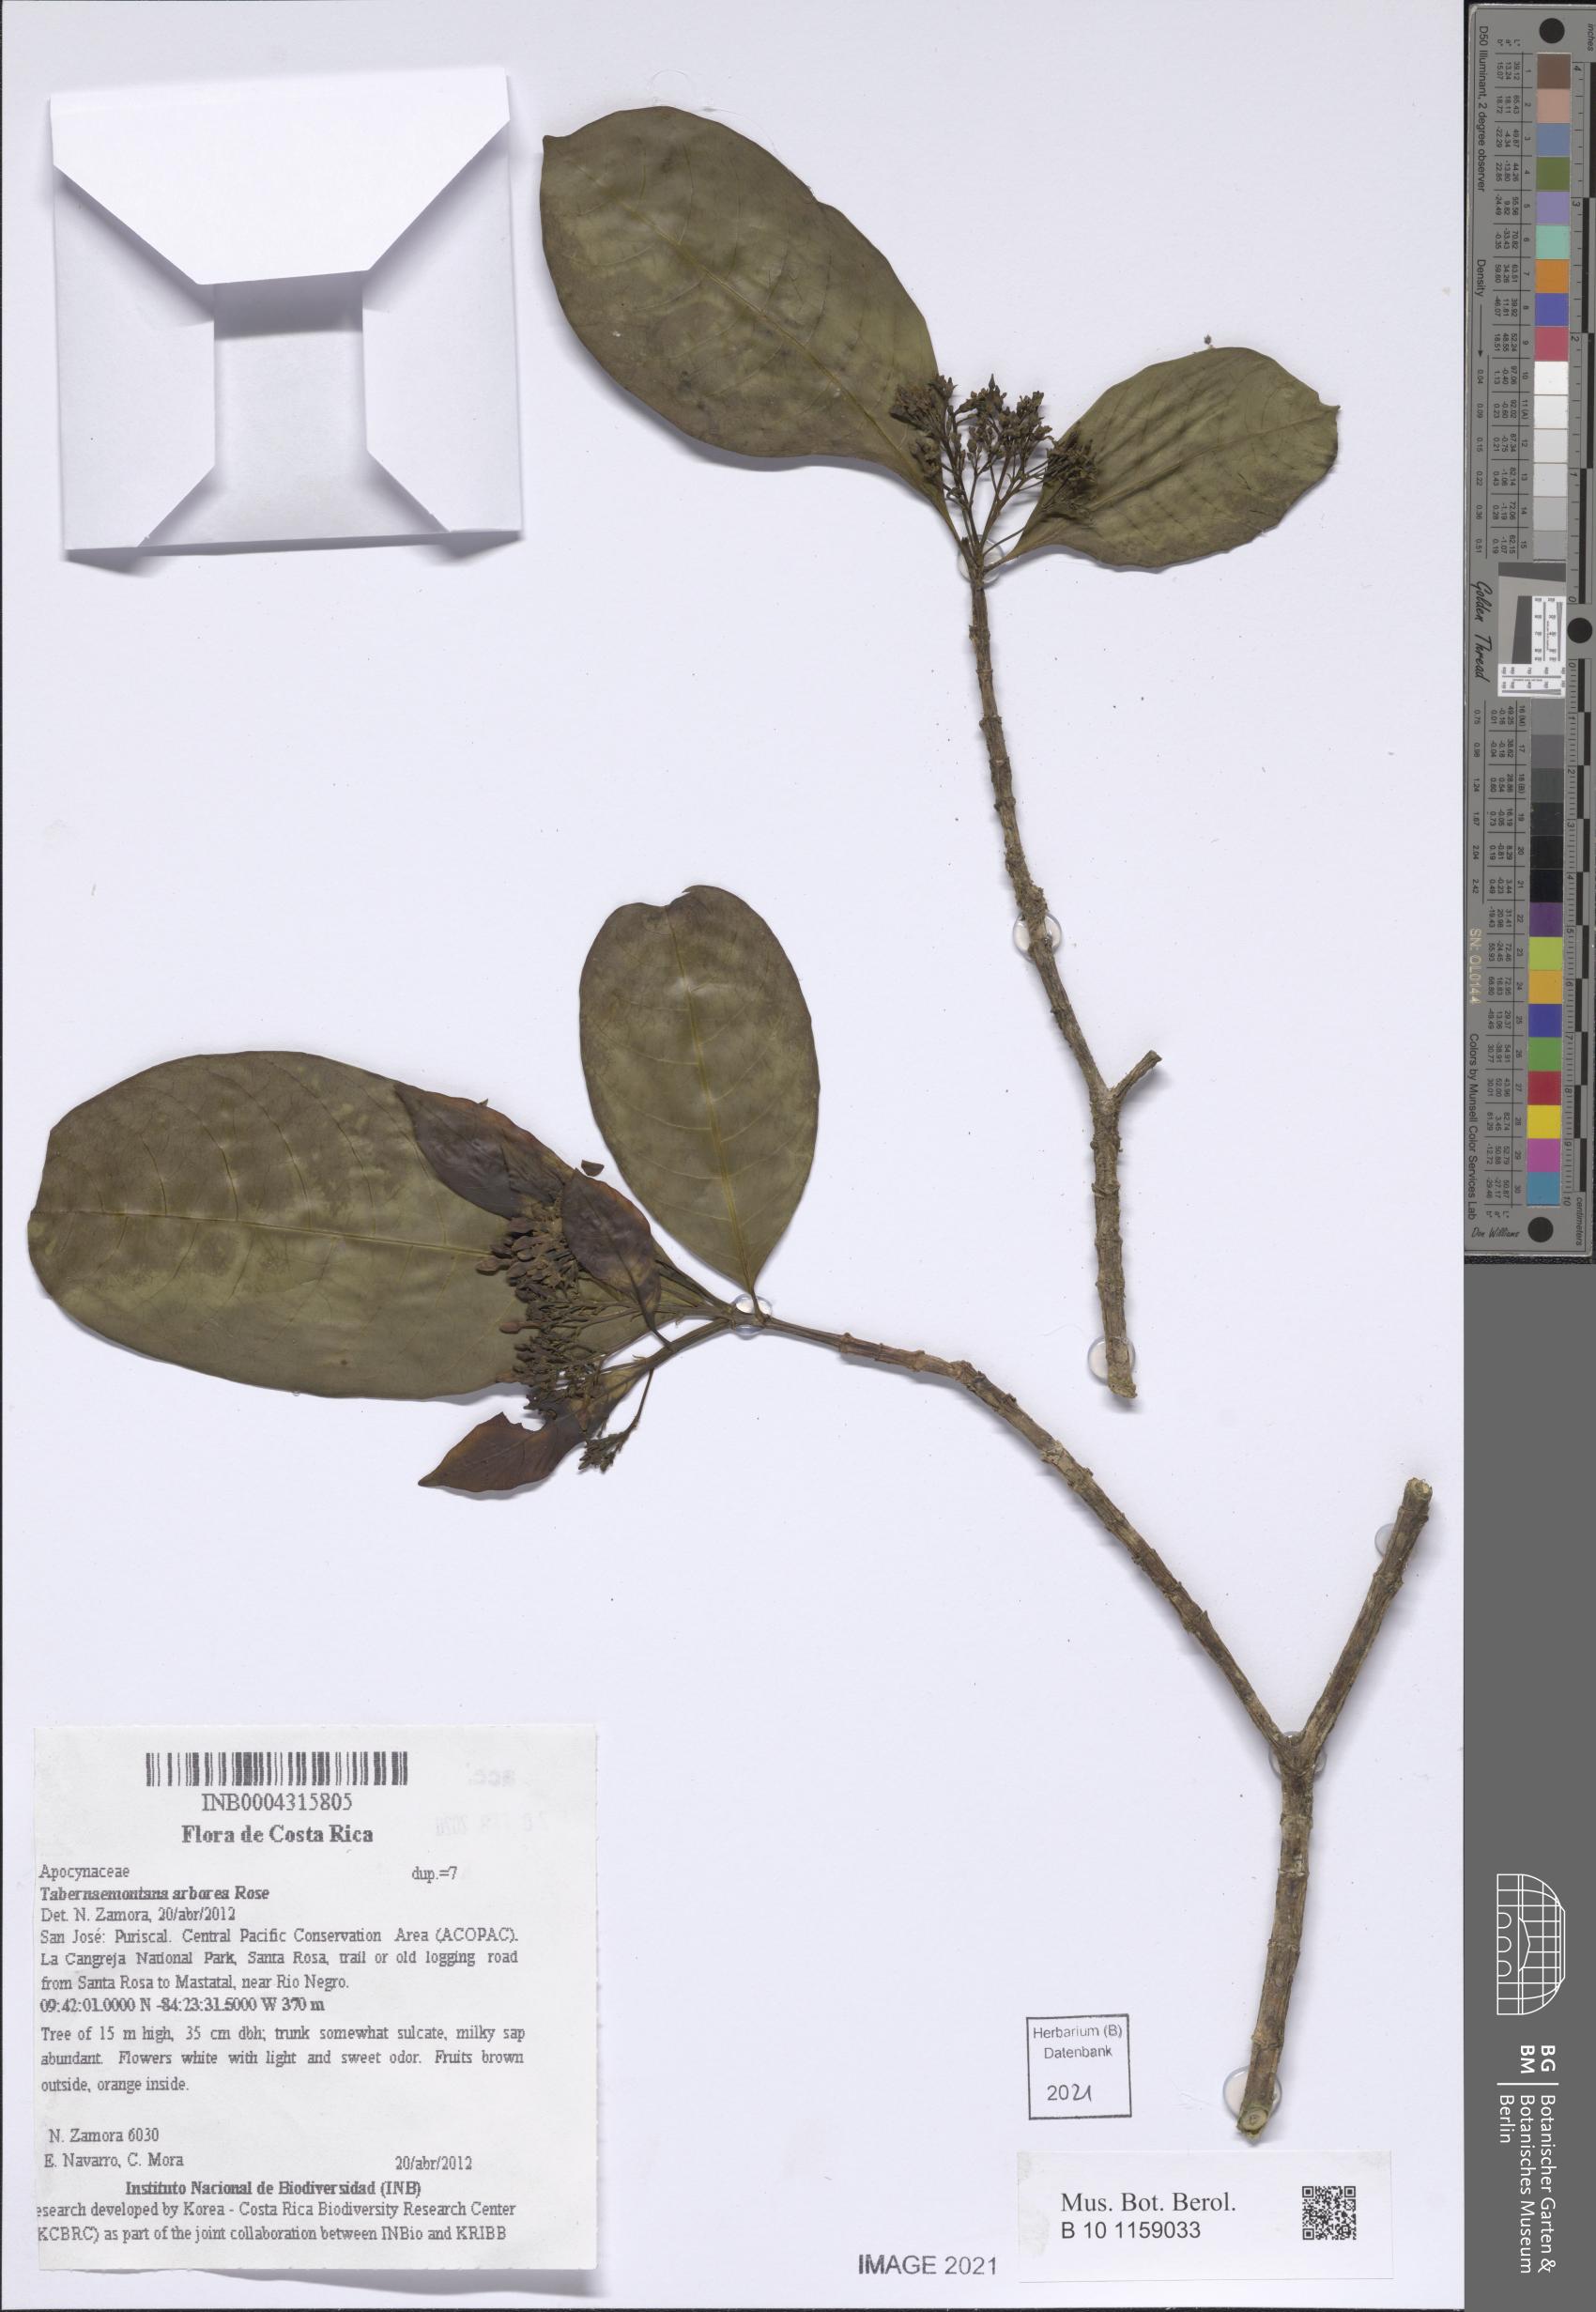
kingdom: Plantae
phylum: Tracheophyta
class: Magnoliopsida
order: Gentianales
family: Apocynaceae
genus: Tabernaemontana
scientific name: Tabernaemontana arborea
